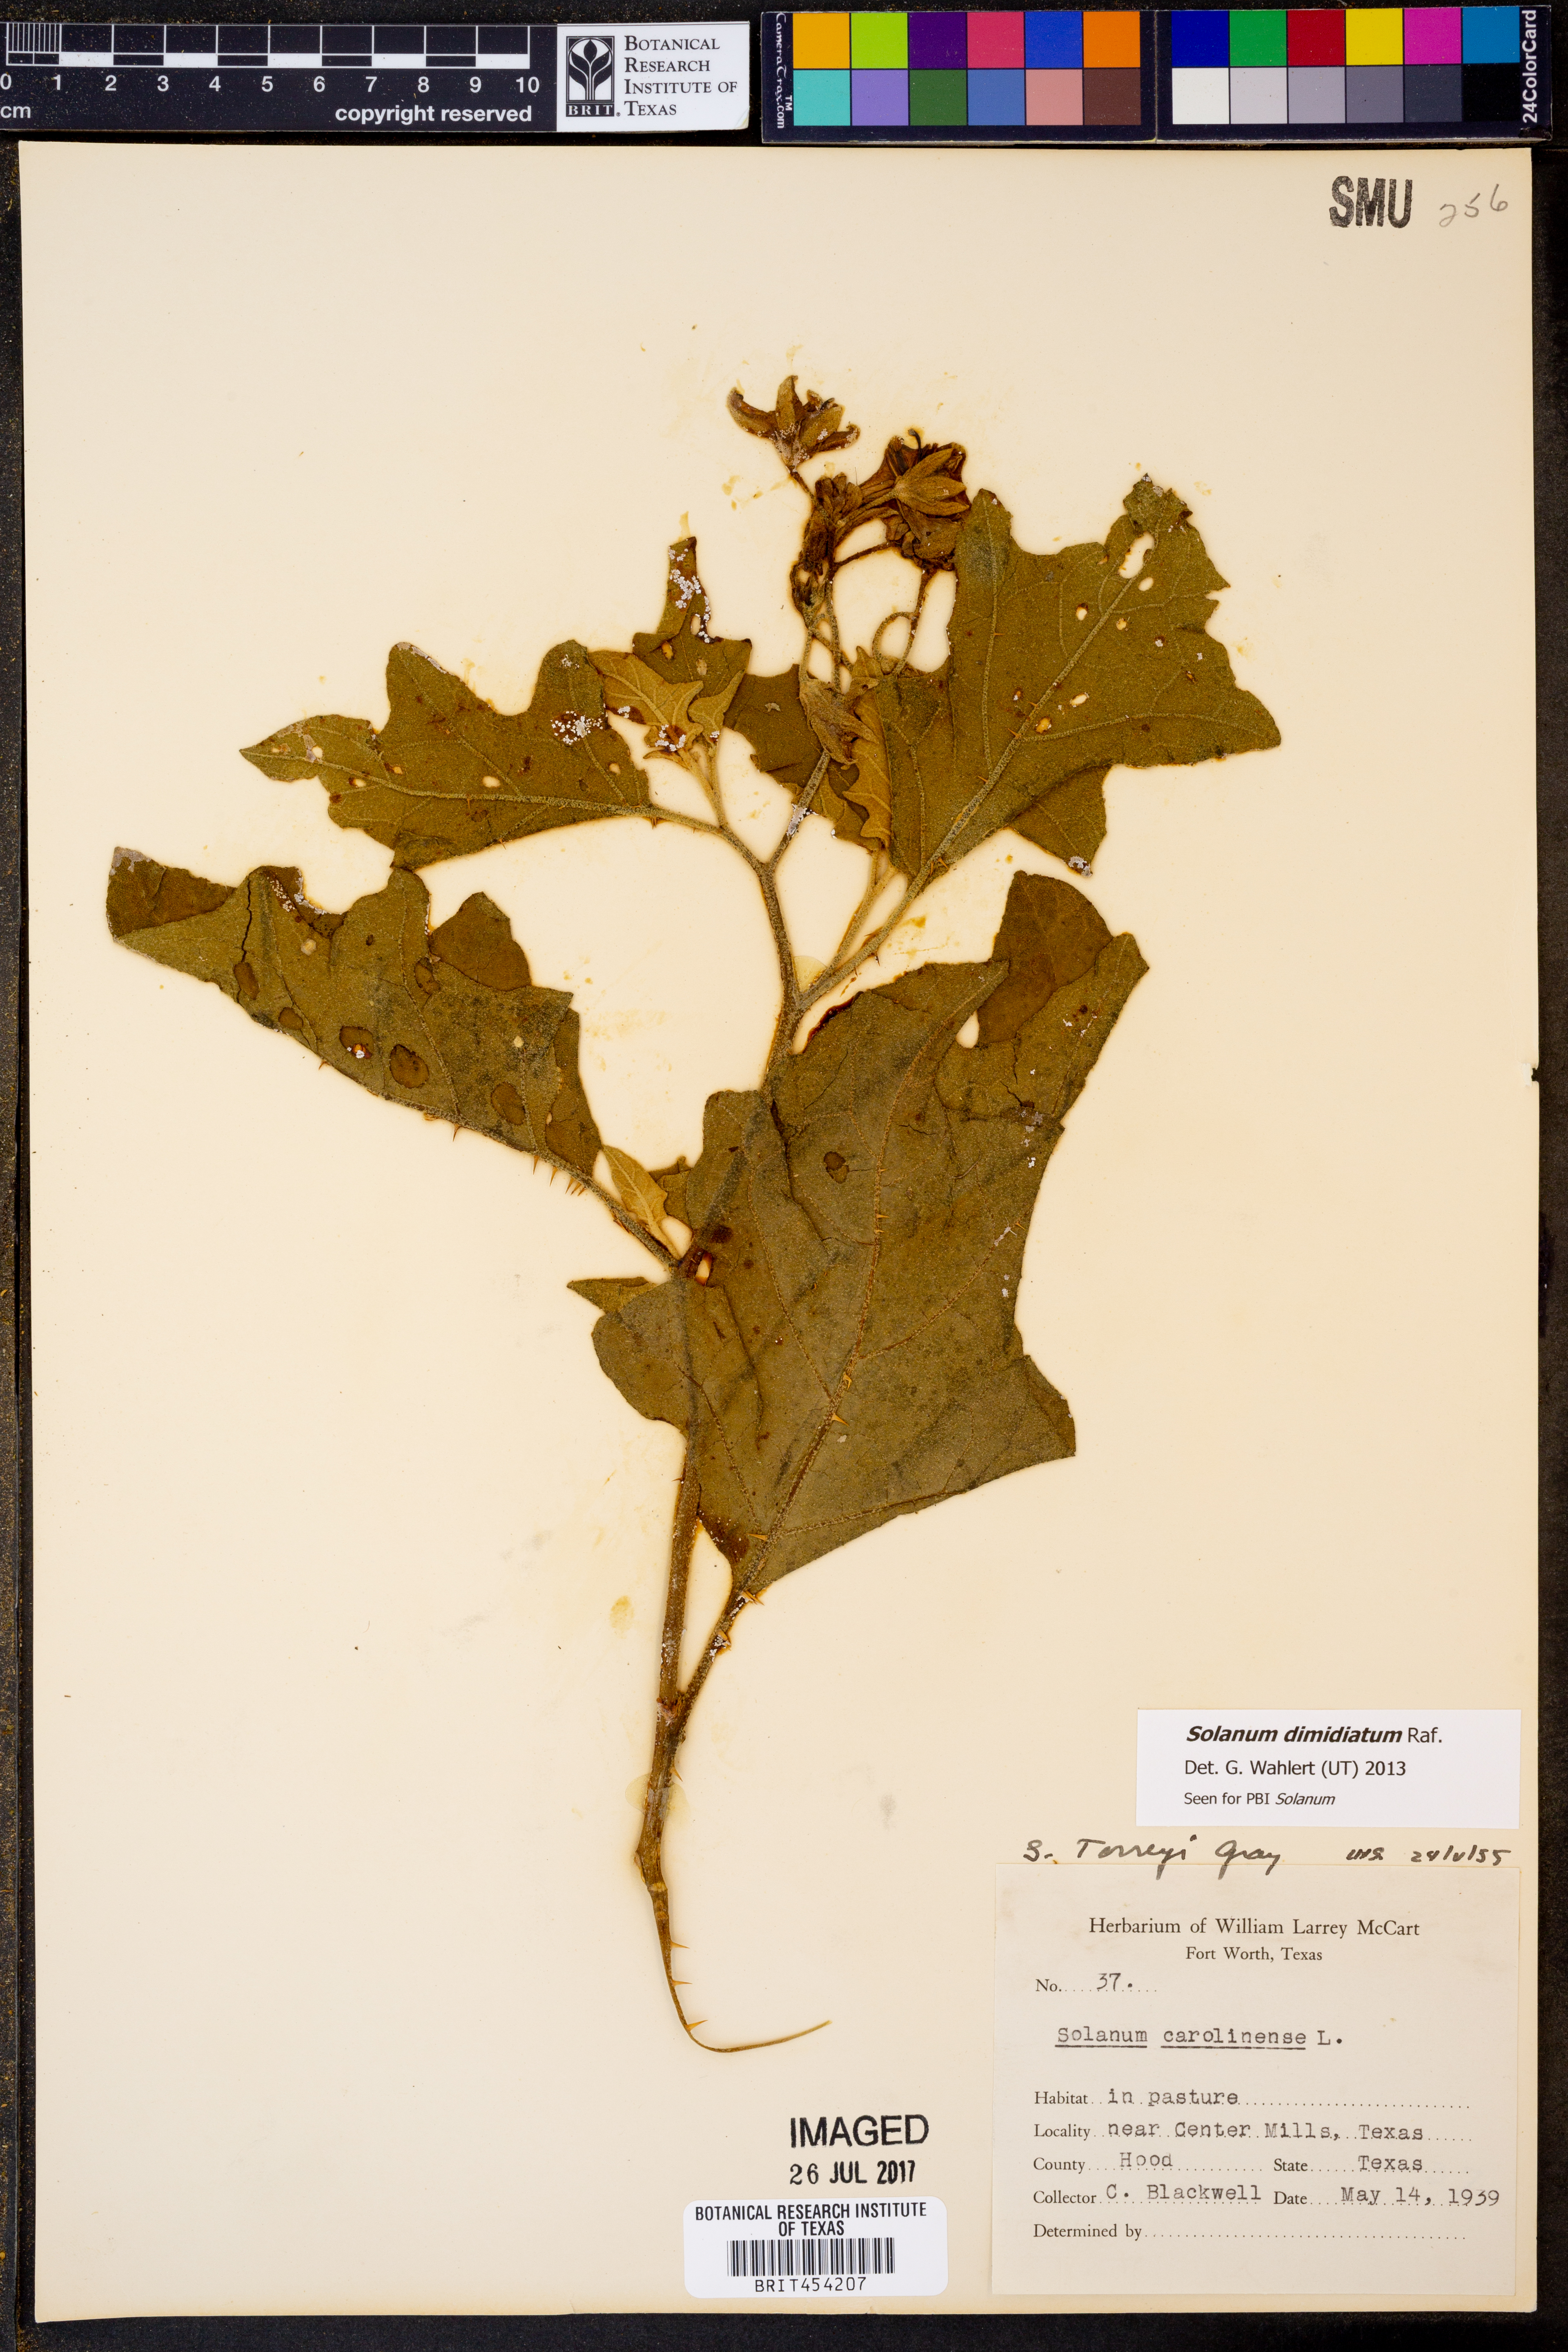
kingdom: Plantae
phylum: Tracheophyta
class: Magnoliopsida
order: Solanales
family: Solanaceae
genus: Solanum
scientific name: Solanum dimidiatum
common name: Carolina horse-nettle
